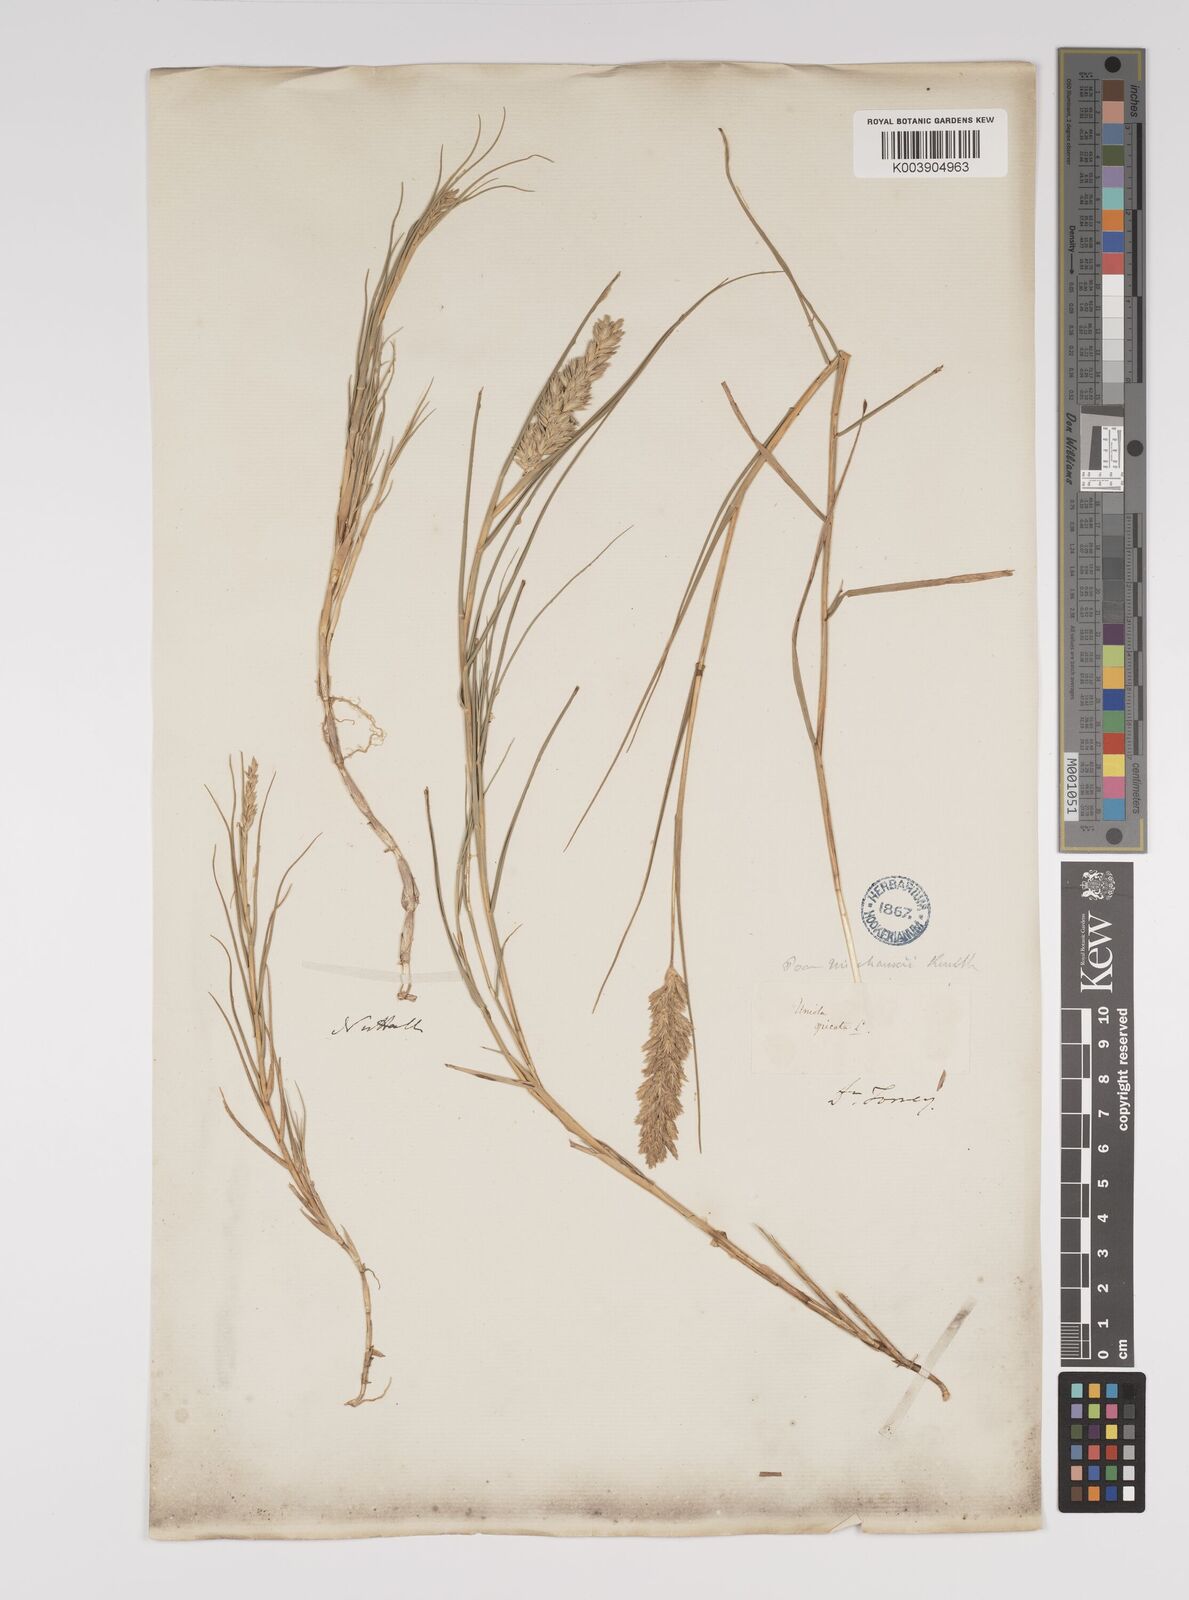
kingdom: Plantae
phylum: Tracheophyta
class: Liliopsida
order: Poales
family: Poaceae
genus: Distichlis
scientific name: Distichlis spicata
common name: Saltgrass
